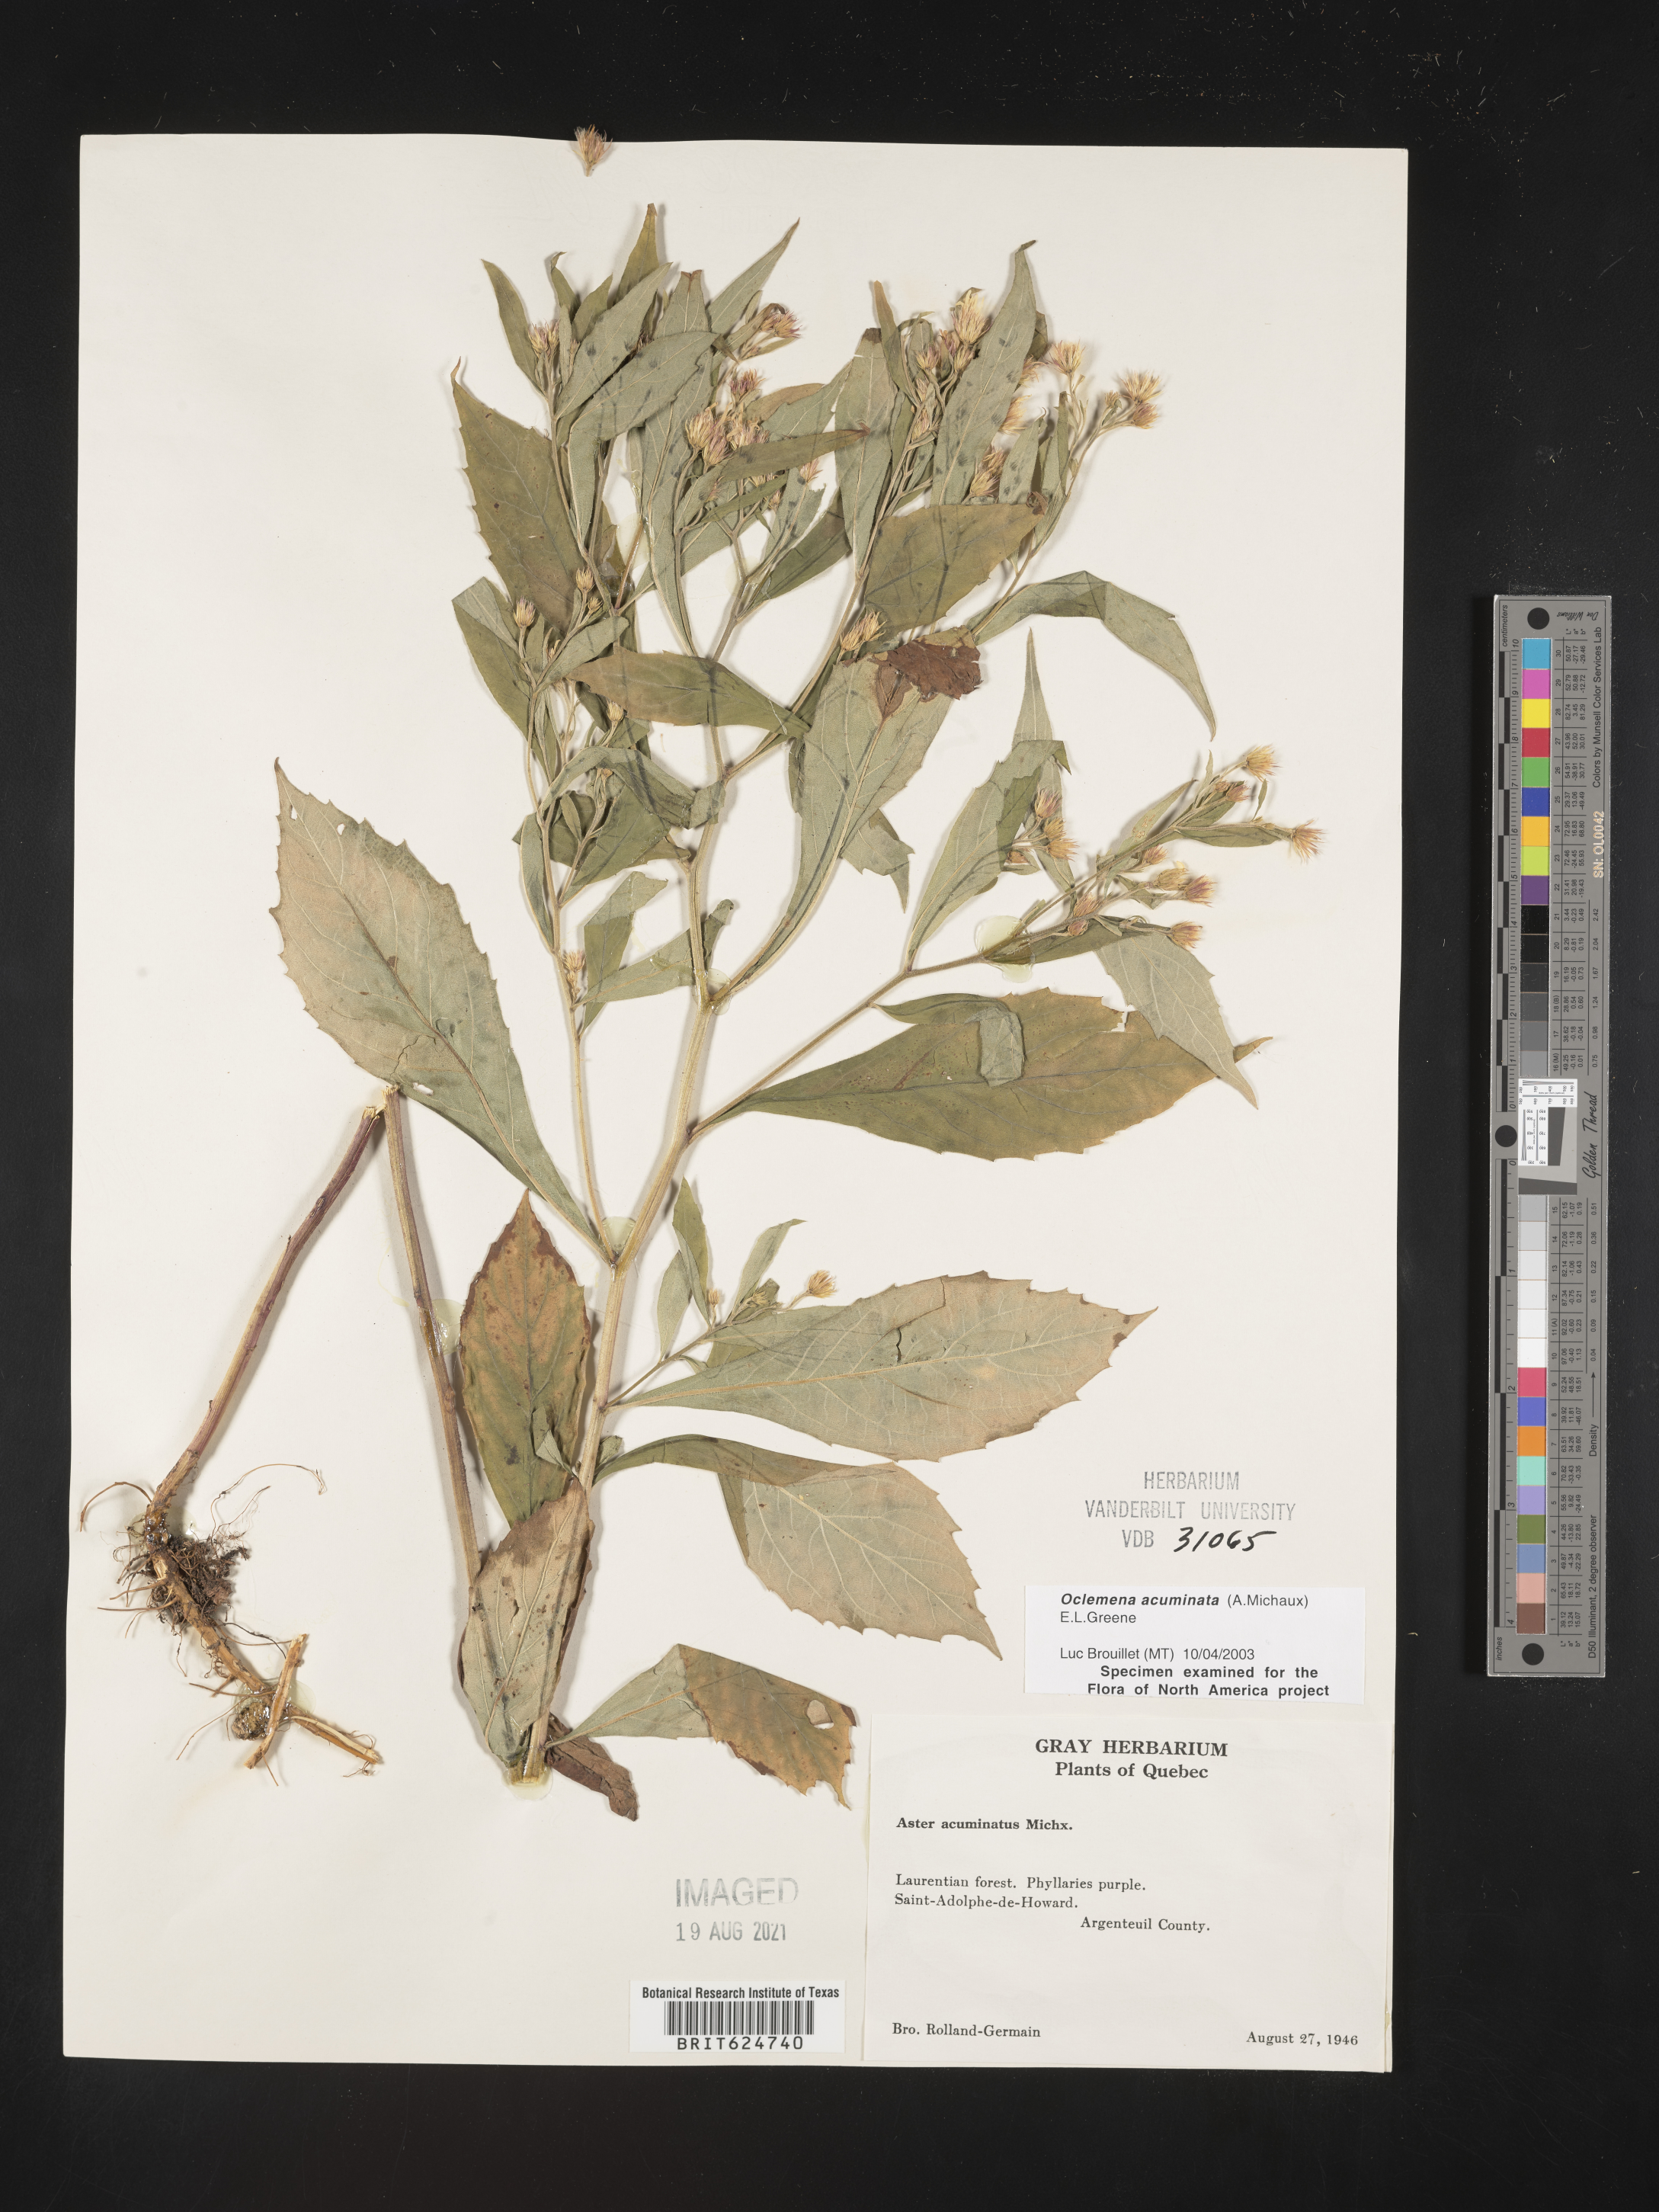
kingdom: Plantae
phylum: Tracheophyta
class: Magnoliopsida
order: Asterales
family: Asteraceae
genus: Oclemena
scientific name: Oclemena acuminata
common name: Mountain aster
